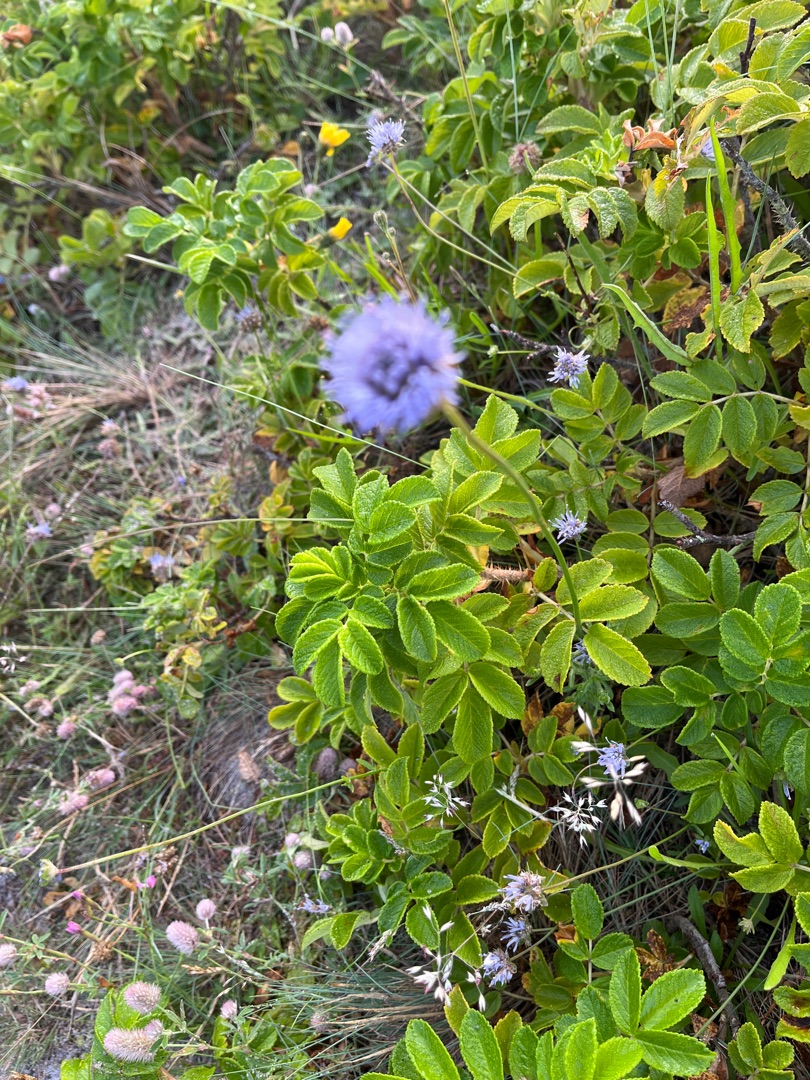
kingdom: Plantae
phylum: Tracheophyta
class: Magnoliopsida
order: Asterales
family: Campanulaceae
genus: Jasione
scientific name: Jasione montana
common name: Blåmunke
